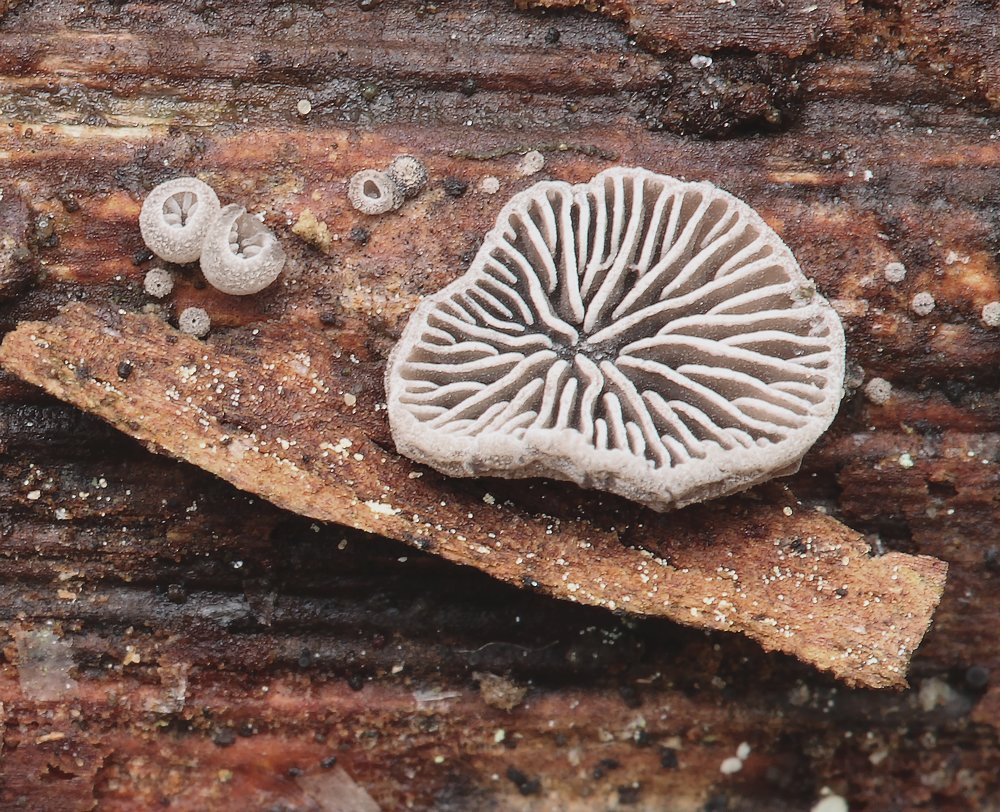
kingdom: Fungi
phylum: Basidiomycota
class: Agaricomycetes
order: Agaricales
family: Pleurotaceae
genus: Resupinatus
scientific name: Resupinatus applicatus
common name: lysfiltet barkhat
